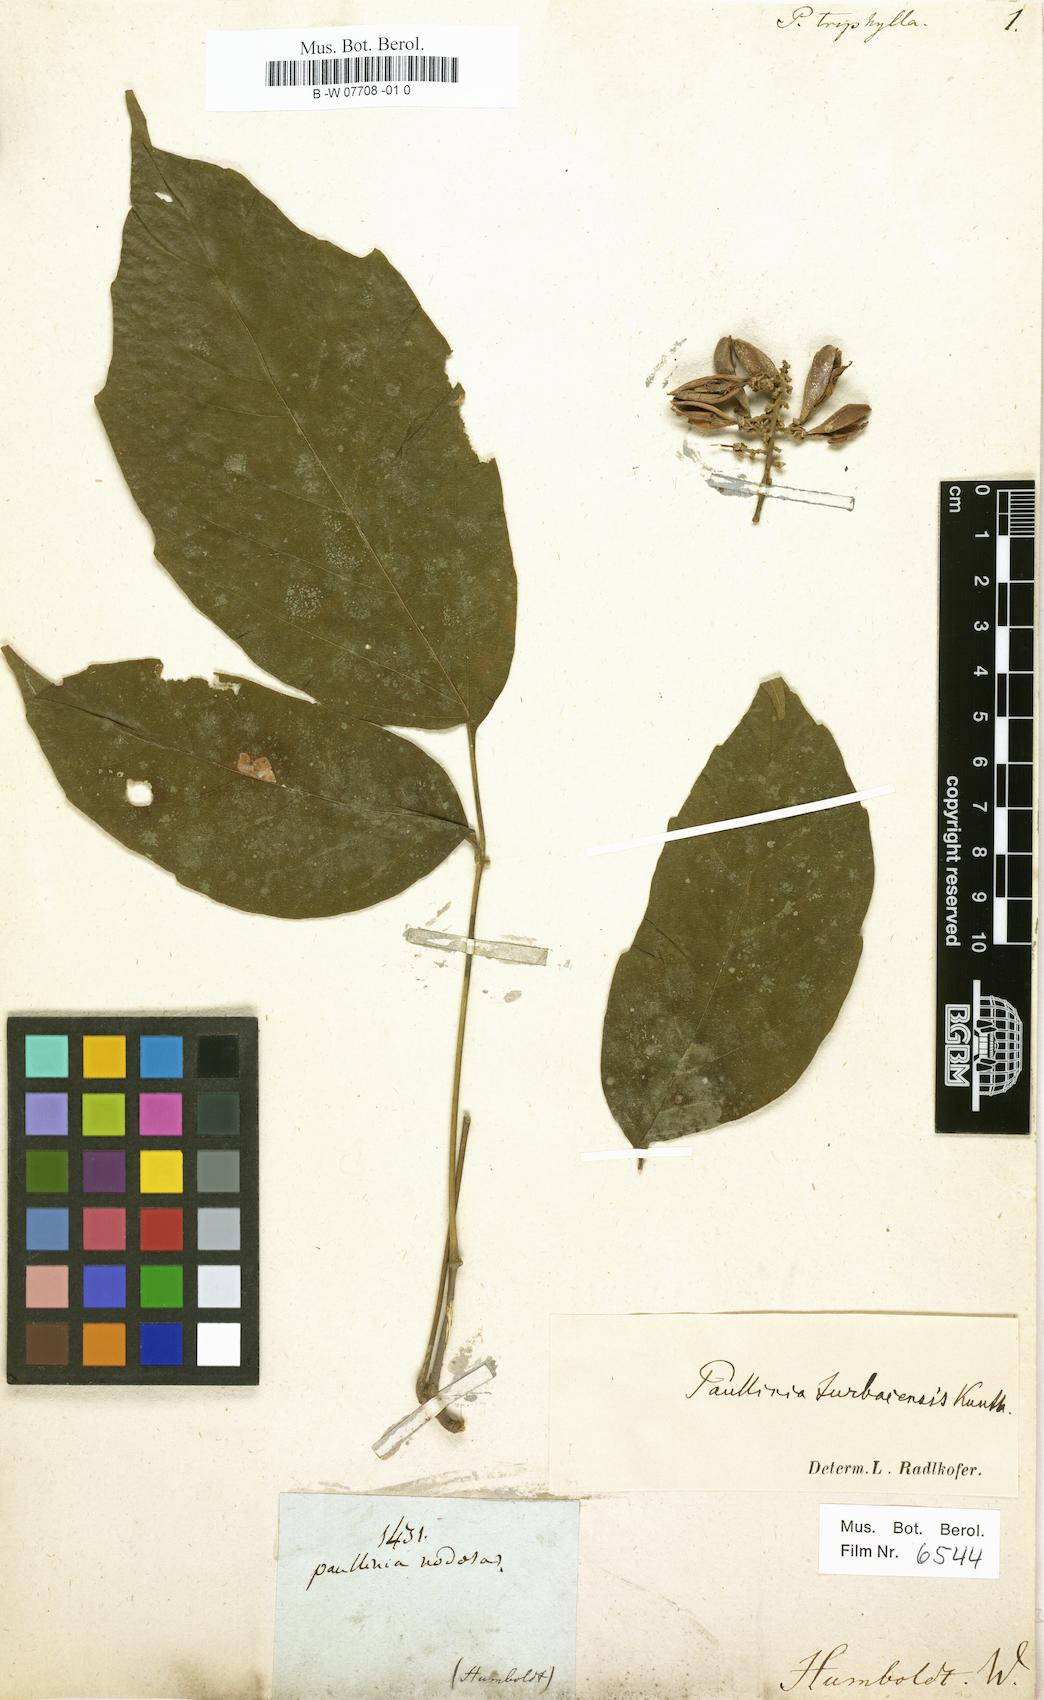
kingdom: Plantae
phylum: Tracheophyta
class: Magnoliopsida
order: Sapindales
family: Sapindaceae
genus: Paullinia
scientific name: Paullinia
